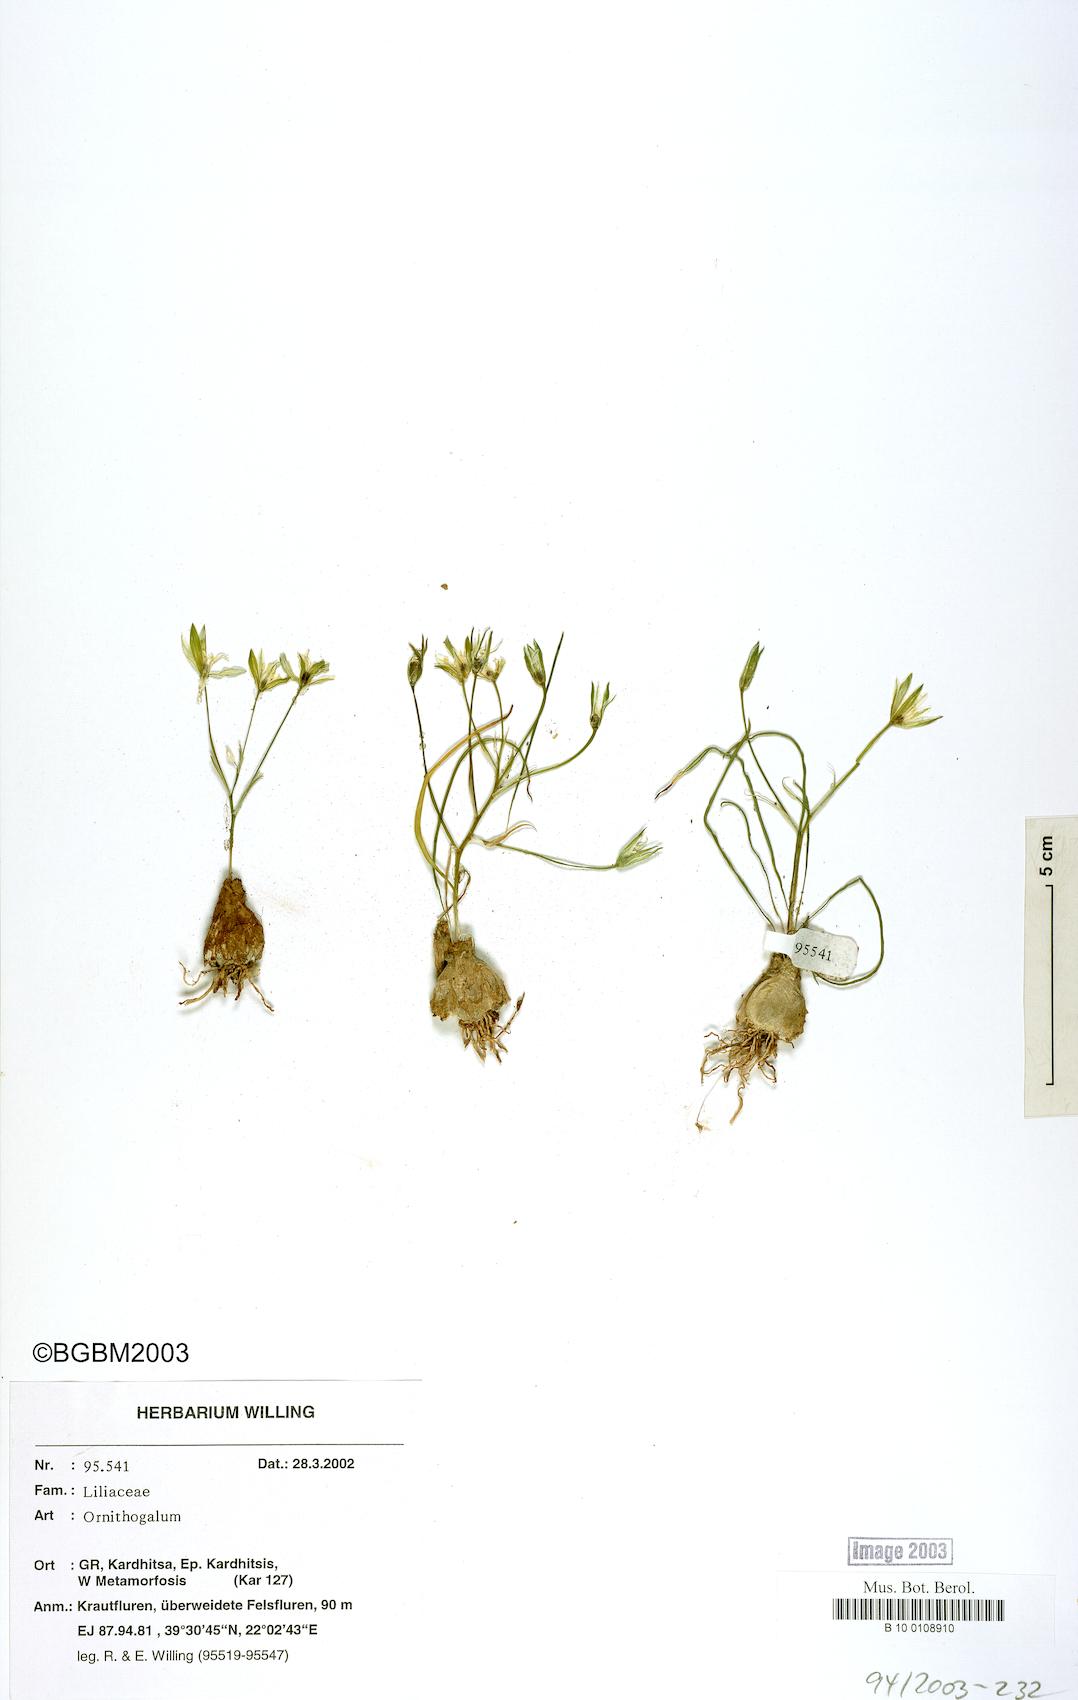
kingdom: Plantae
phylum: Tracheophyta
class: Liliopsida
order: Asparagales
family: Asparagaceae
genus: Ornithogalum
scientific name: Ornithogalum
